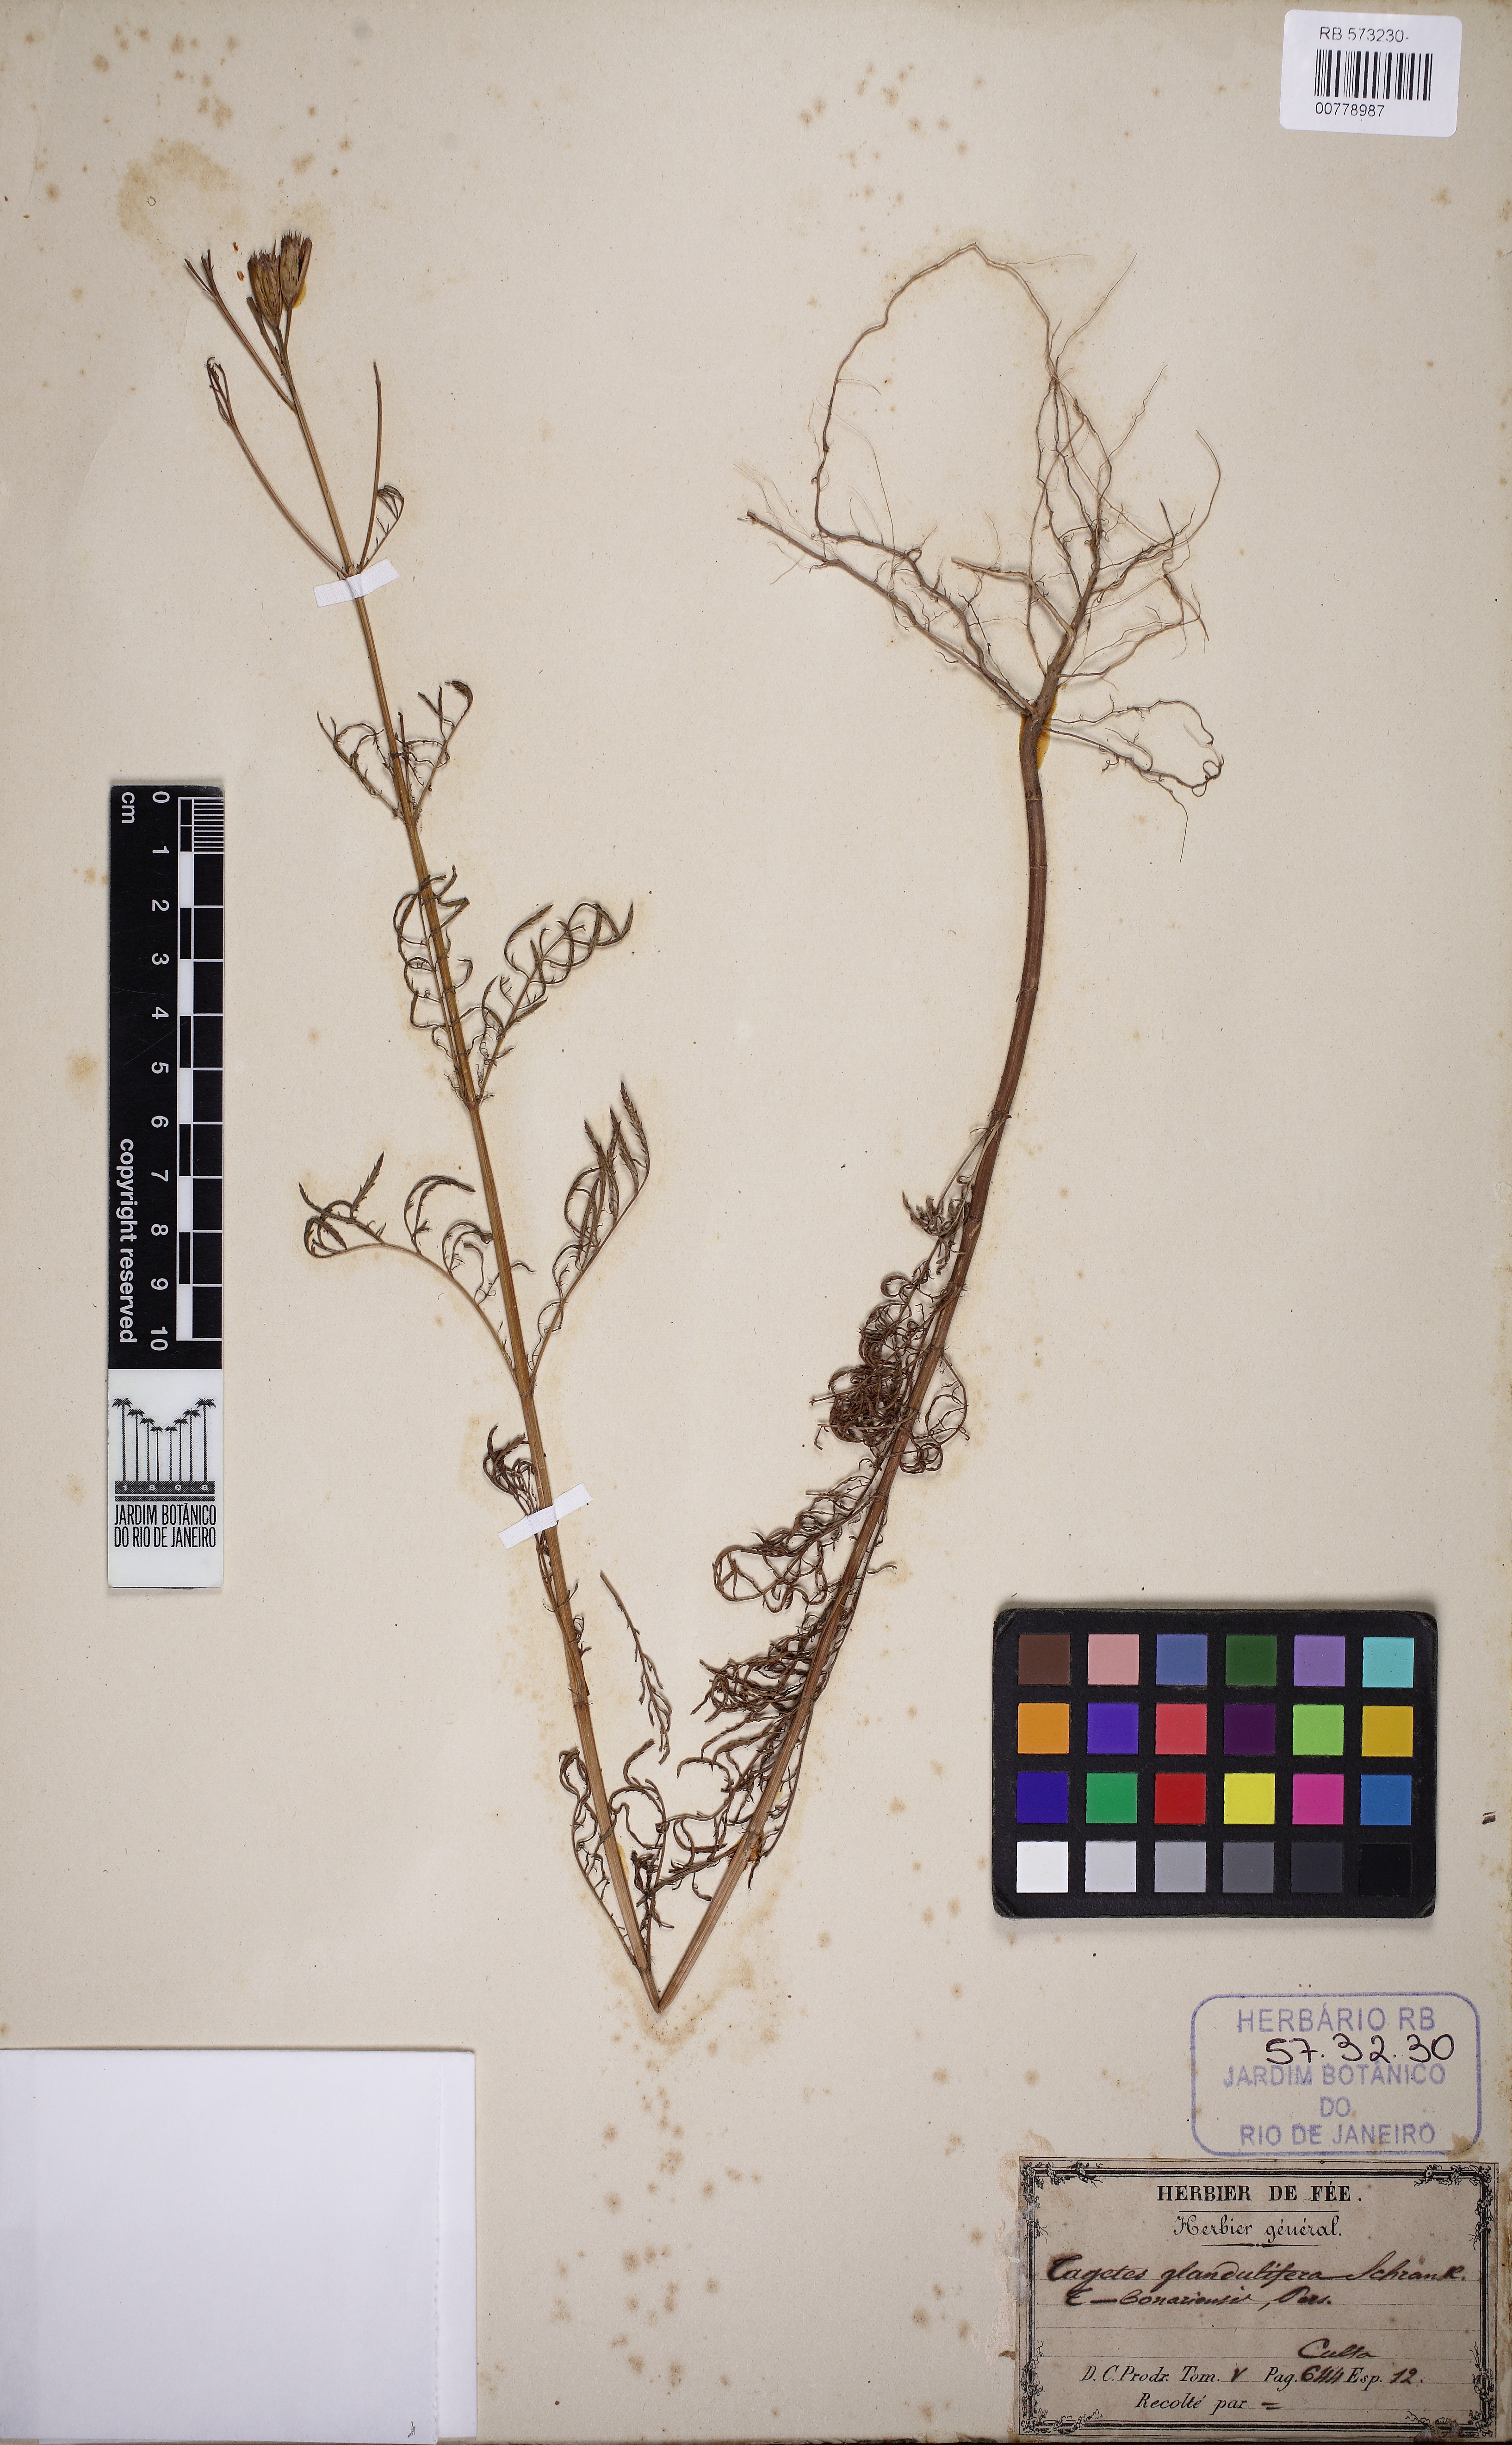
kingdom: Plantae
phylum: Tracheophyta
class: Magnoliopsida
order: Asterales
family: Asteraceae
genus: Tagetes
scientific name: Tagetes minuta
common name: Muster john henry
